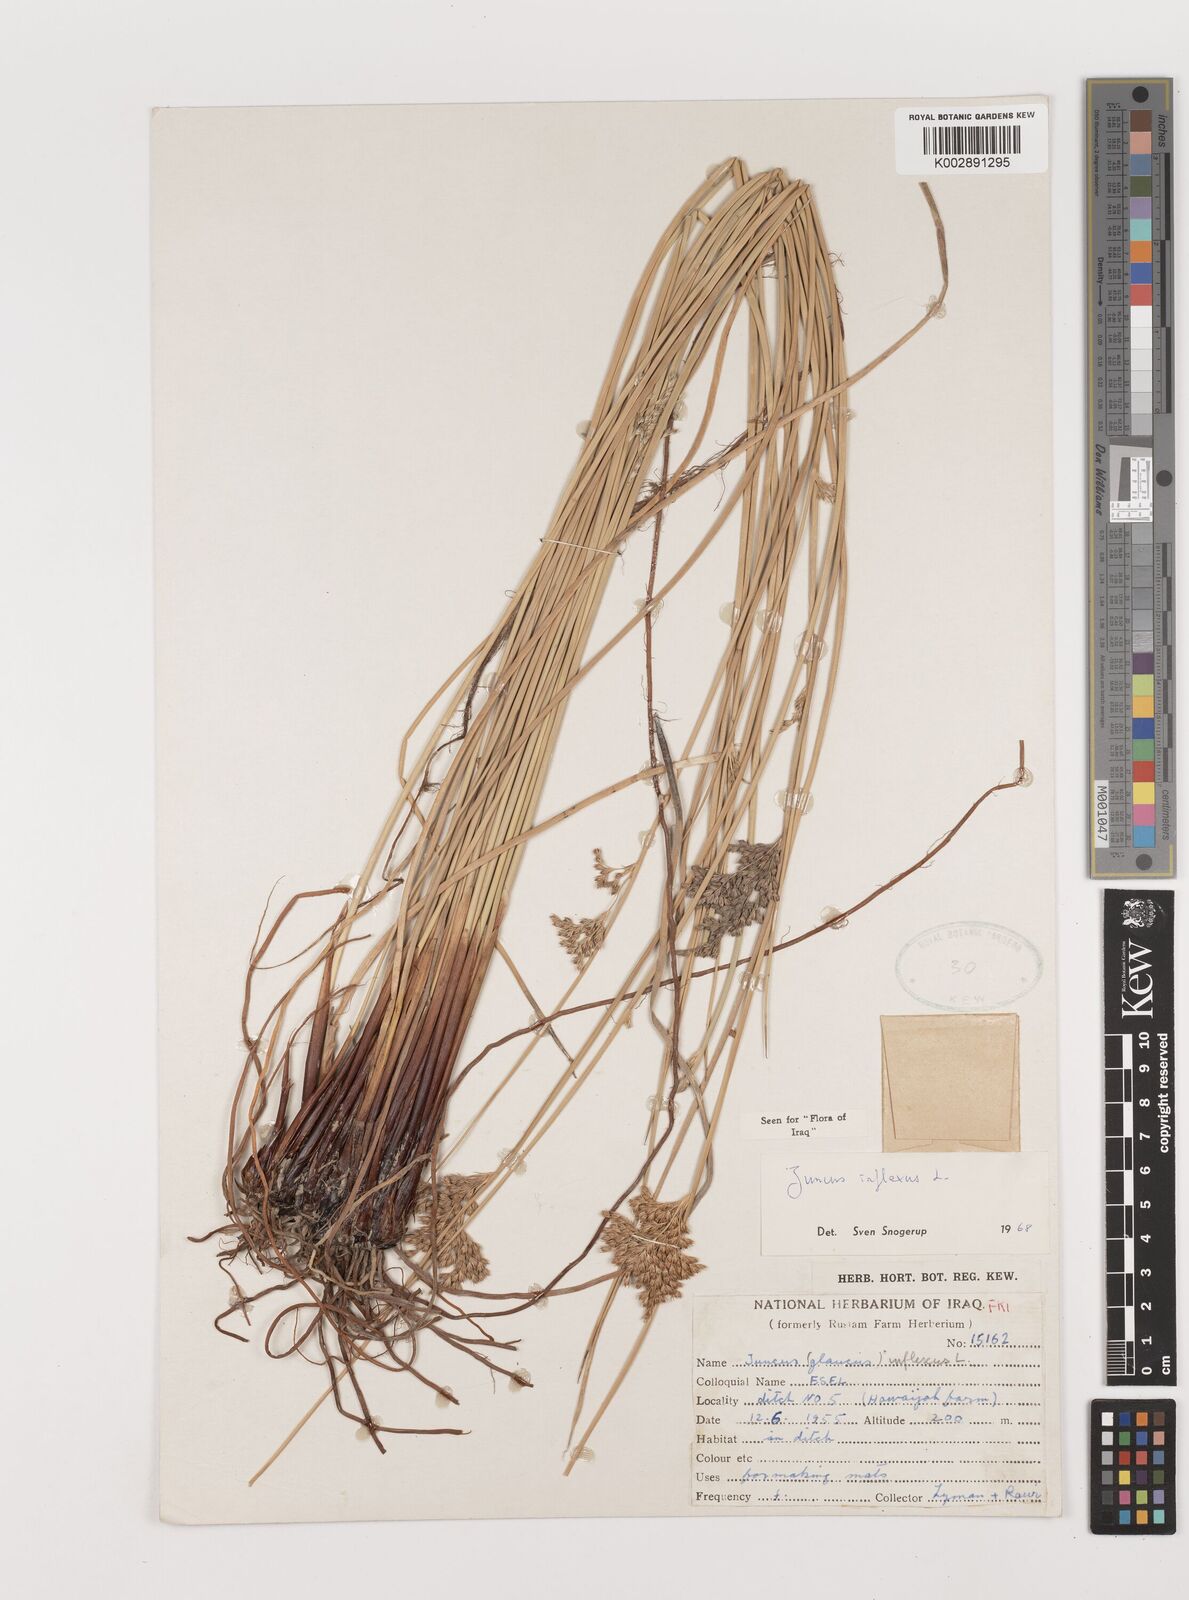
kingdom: Plantae
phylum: Tracheophyta
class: Liliopsida
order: Poales
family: Juncaceae
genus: Juncus
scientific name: Juncus inflexus
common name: Hard rush
